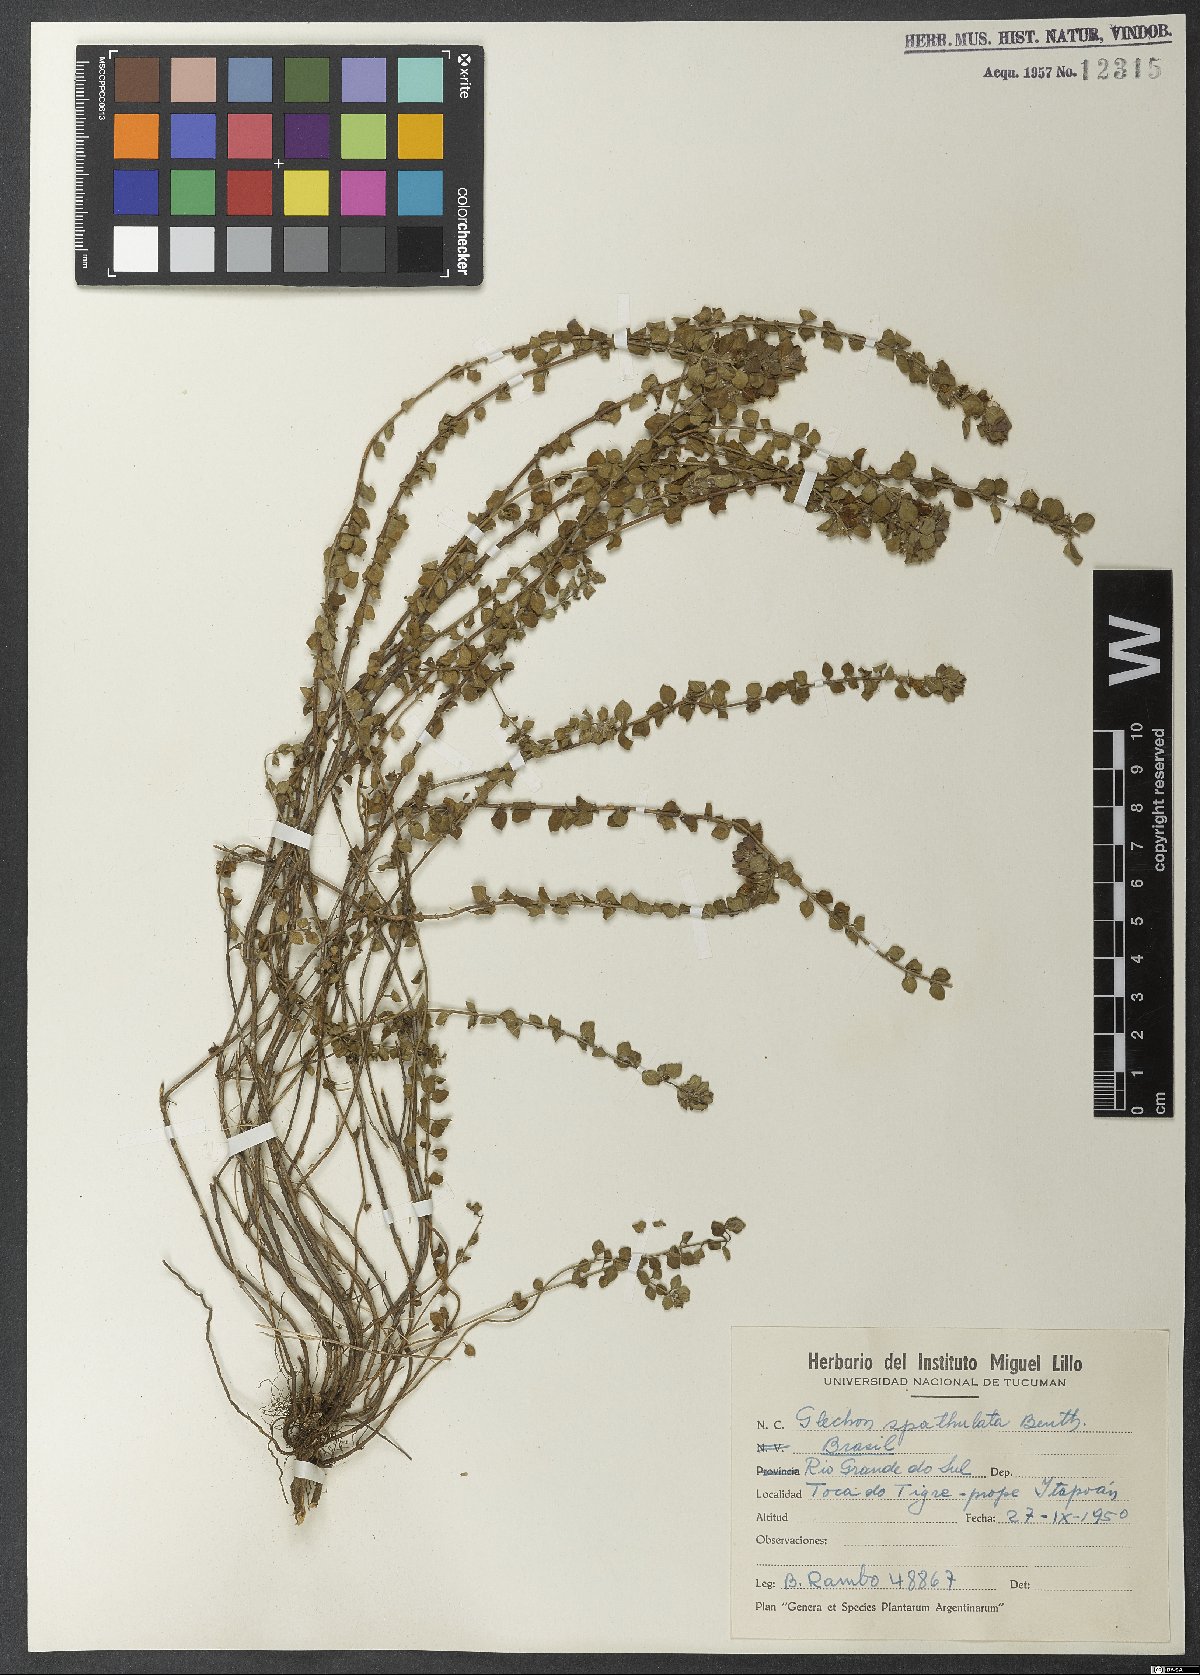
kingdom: Plantae
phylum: Tracheophyta
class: Magnoliopsida
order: Lamiales
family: Lamiaceae
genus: Glechon
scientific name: Glechon thymoides
